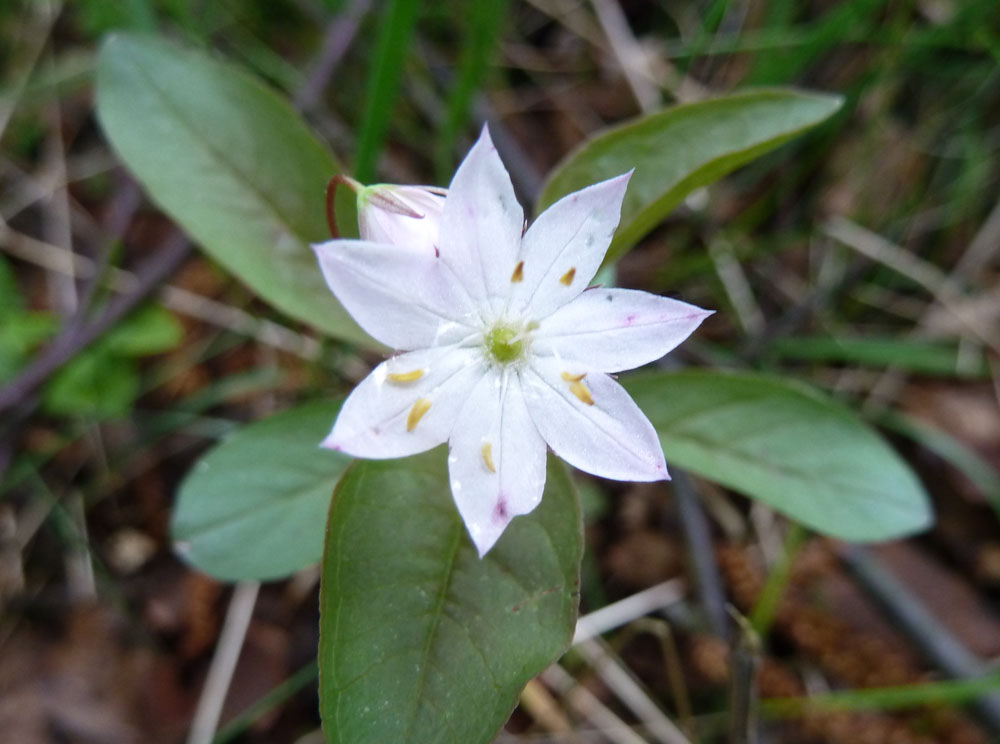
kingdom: Plantae
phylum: Tracheophyta
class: Magnoliopsida
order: Ericales
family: Primulaceae
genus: Lysimachia
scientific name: Lysimachia europaea
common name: Arctic starflower
